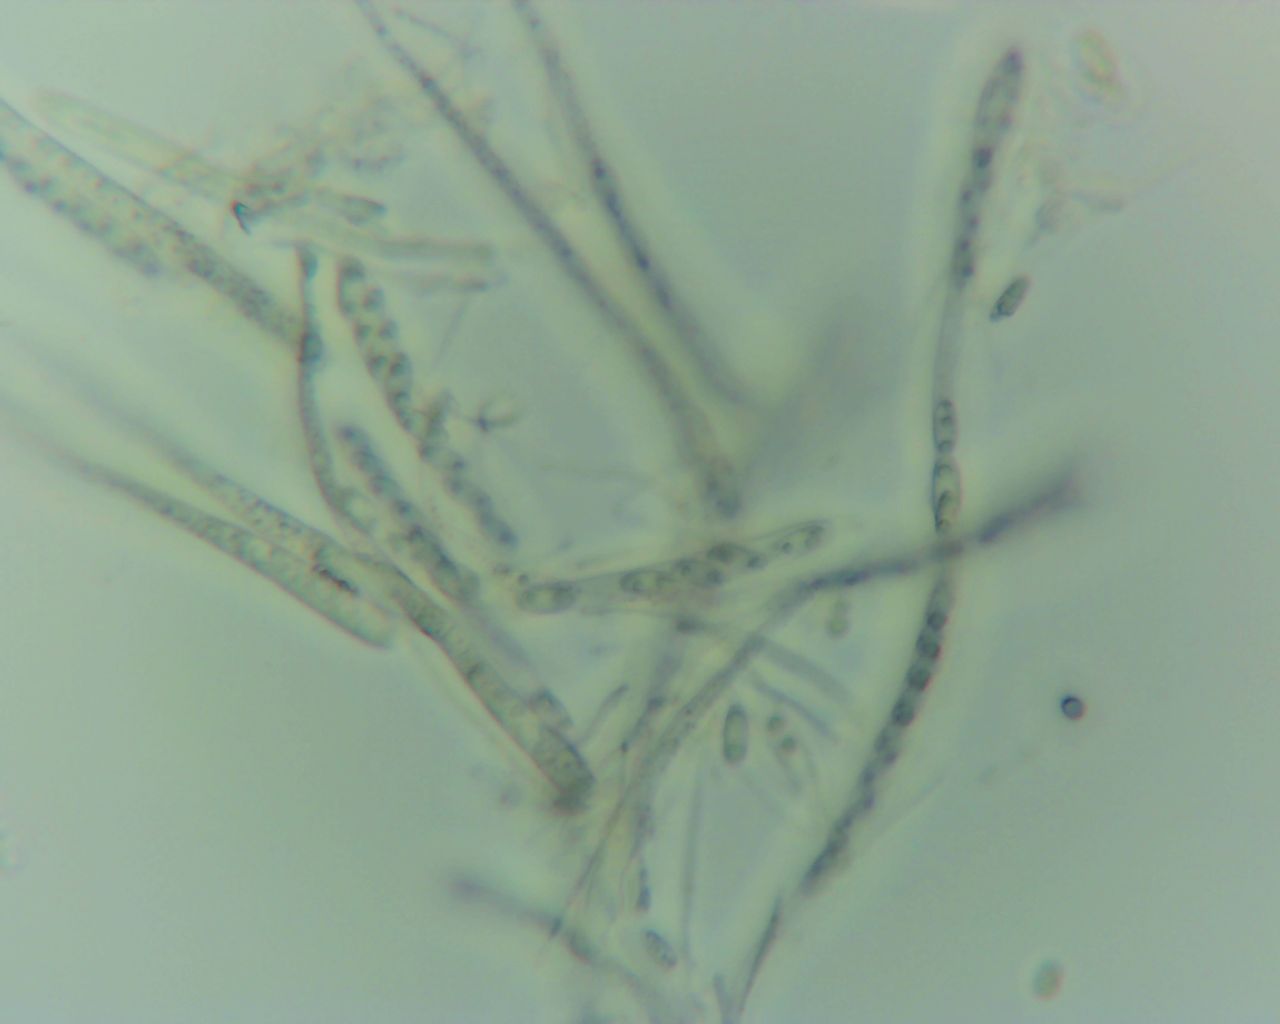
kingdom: Fungi
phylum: Ascomycota
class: Leotiomycetes
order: Helotiales
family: Pezizellaceae
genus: Calycina
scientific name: Calycina citrina
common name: almindelig gulskive
